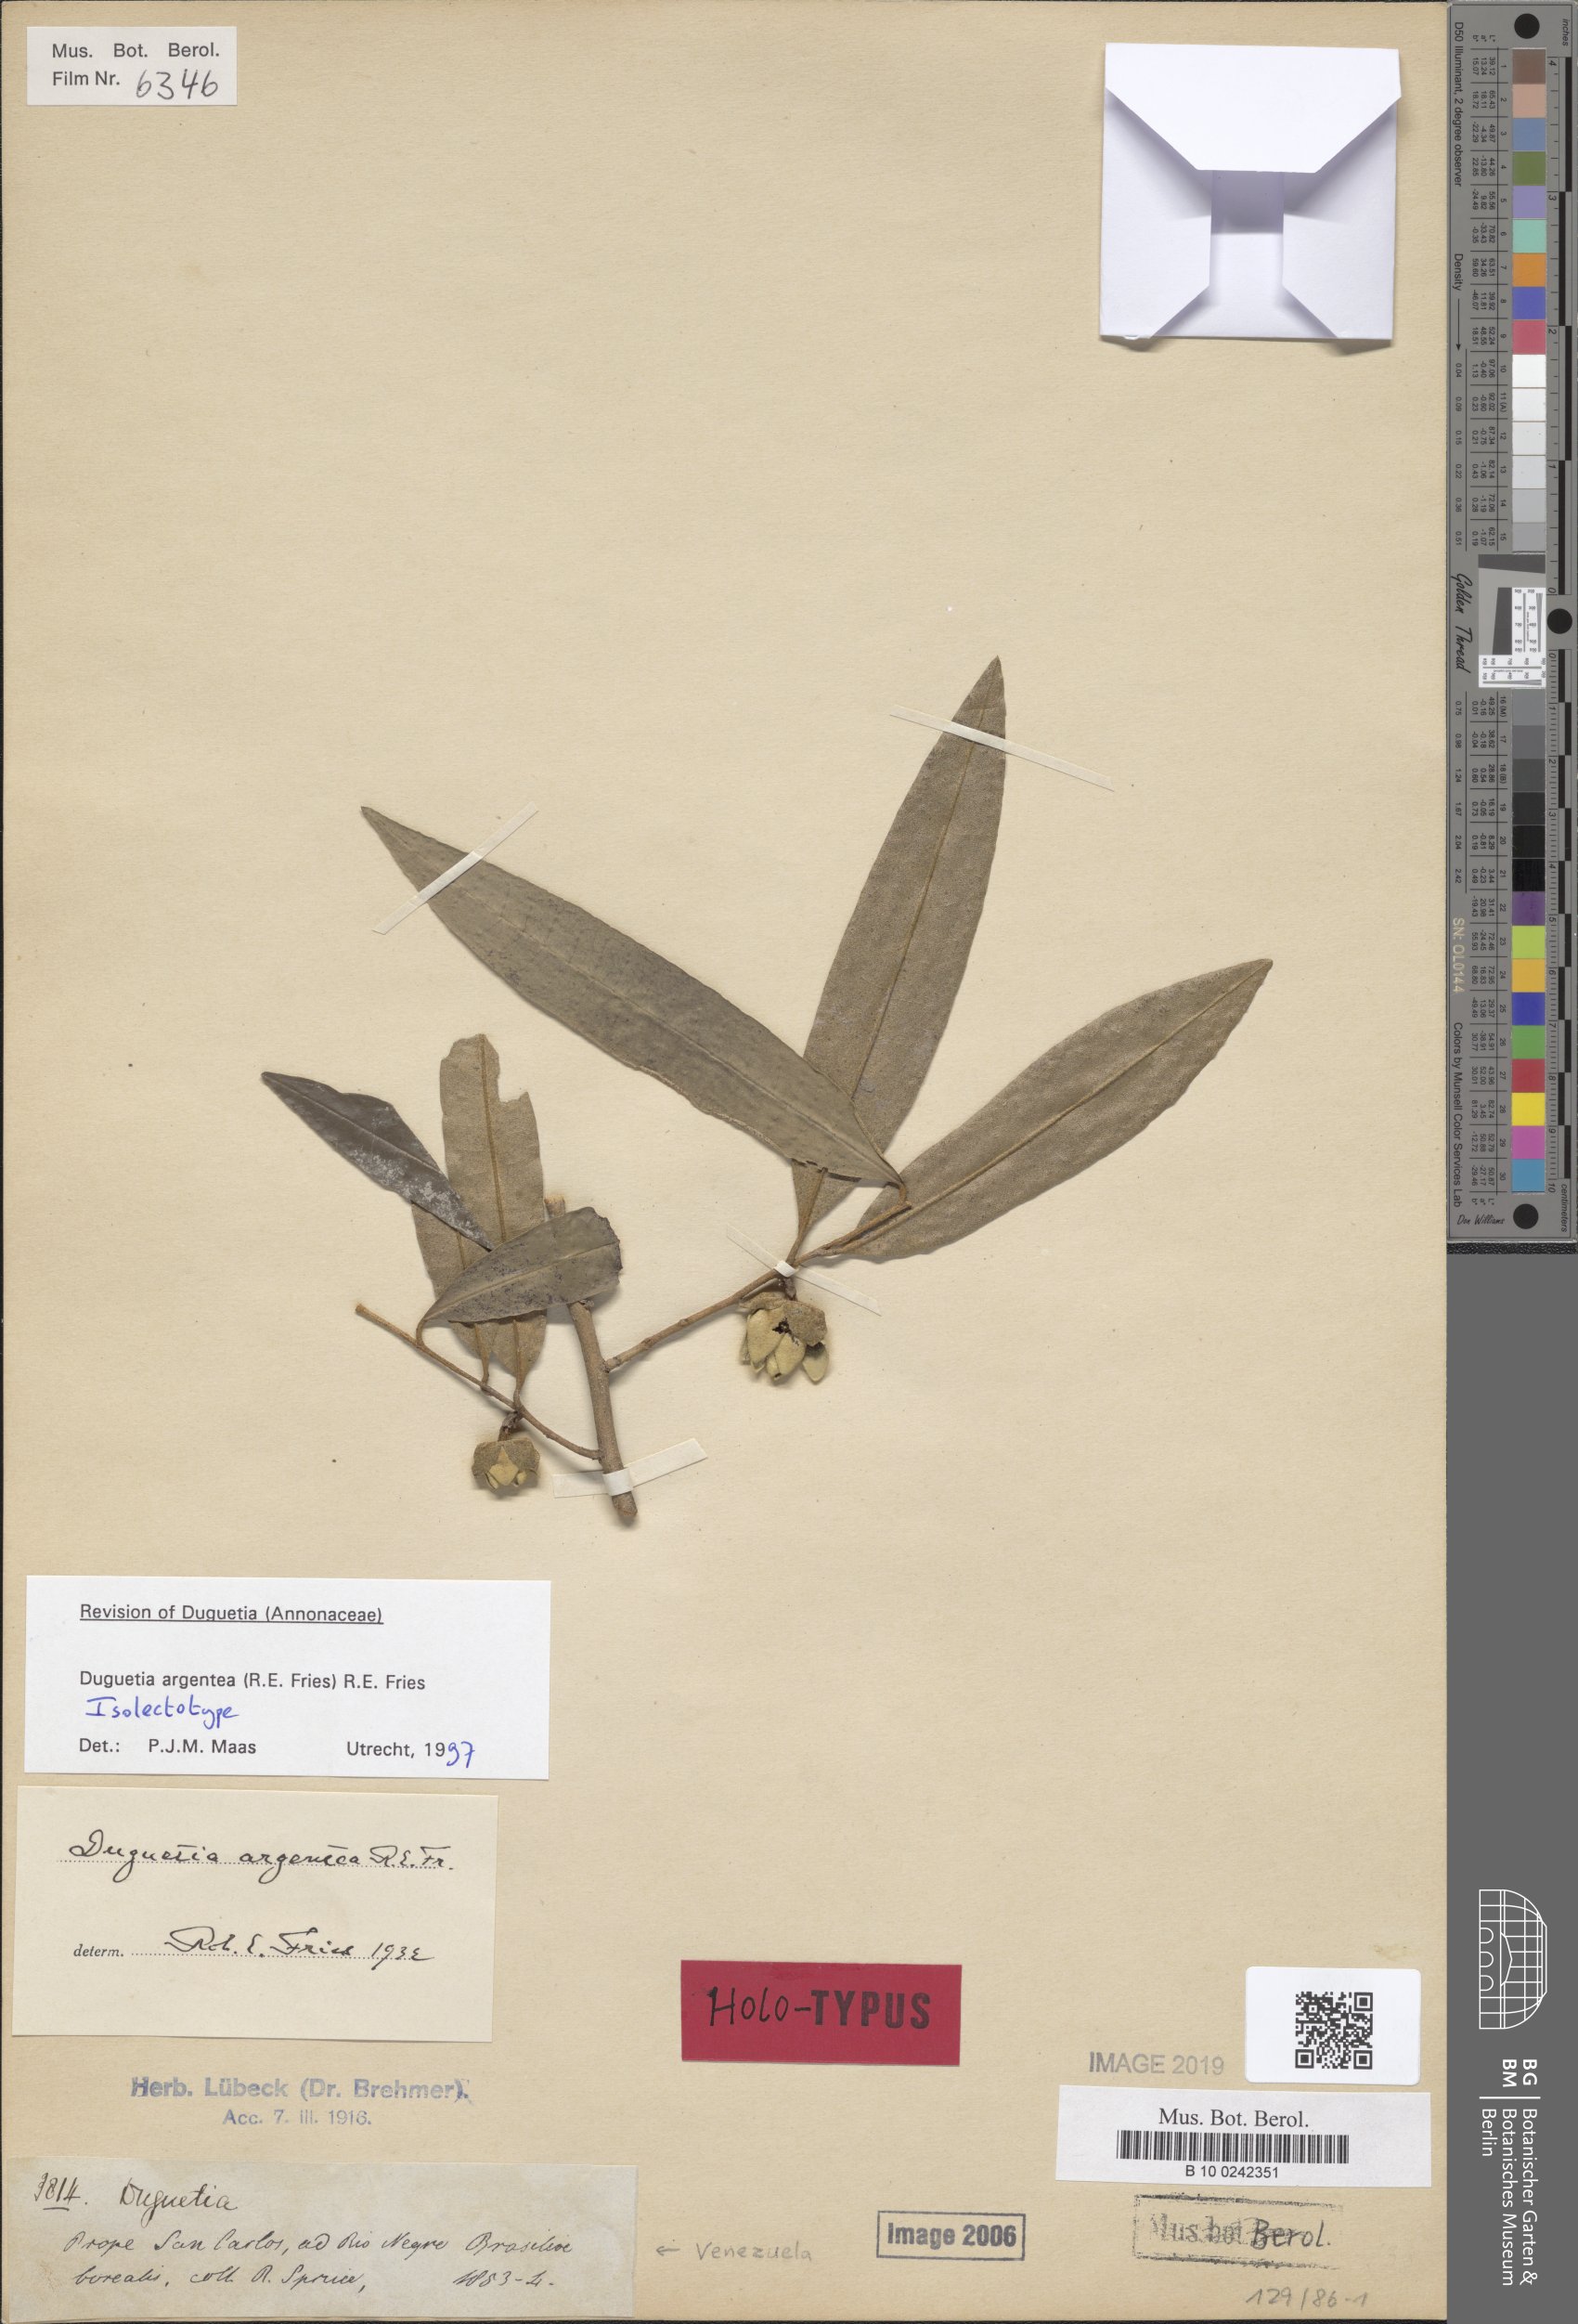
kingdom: Plantae
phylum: Tracheophyta
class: Magnoliopsida
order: Magnoliales
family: Annonaceae
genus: Duguetia
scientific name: Duguetia argentea
